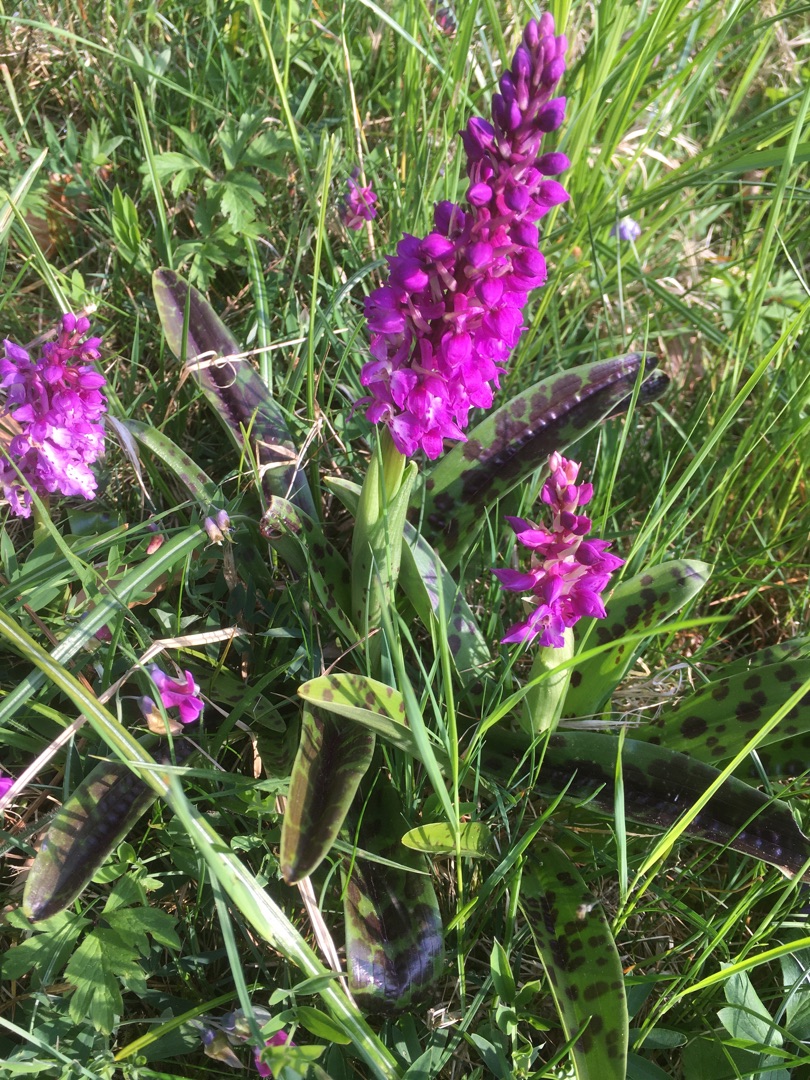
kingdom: Plantae
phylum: Tracheophyta
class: Liliopsida
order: Asparagales
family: Orchidaceae
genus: Orchis
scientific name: Orchis mascula
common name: Tyndakset gøgeurt
